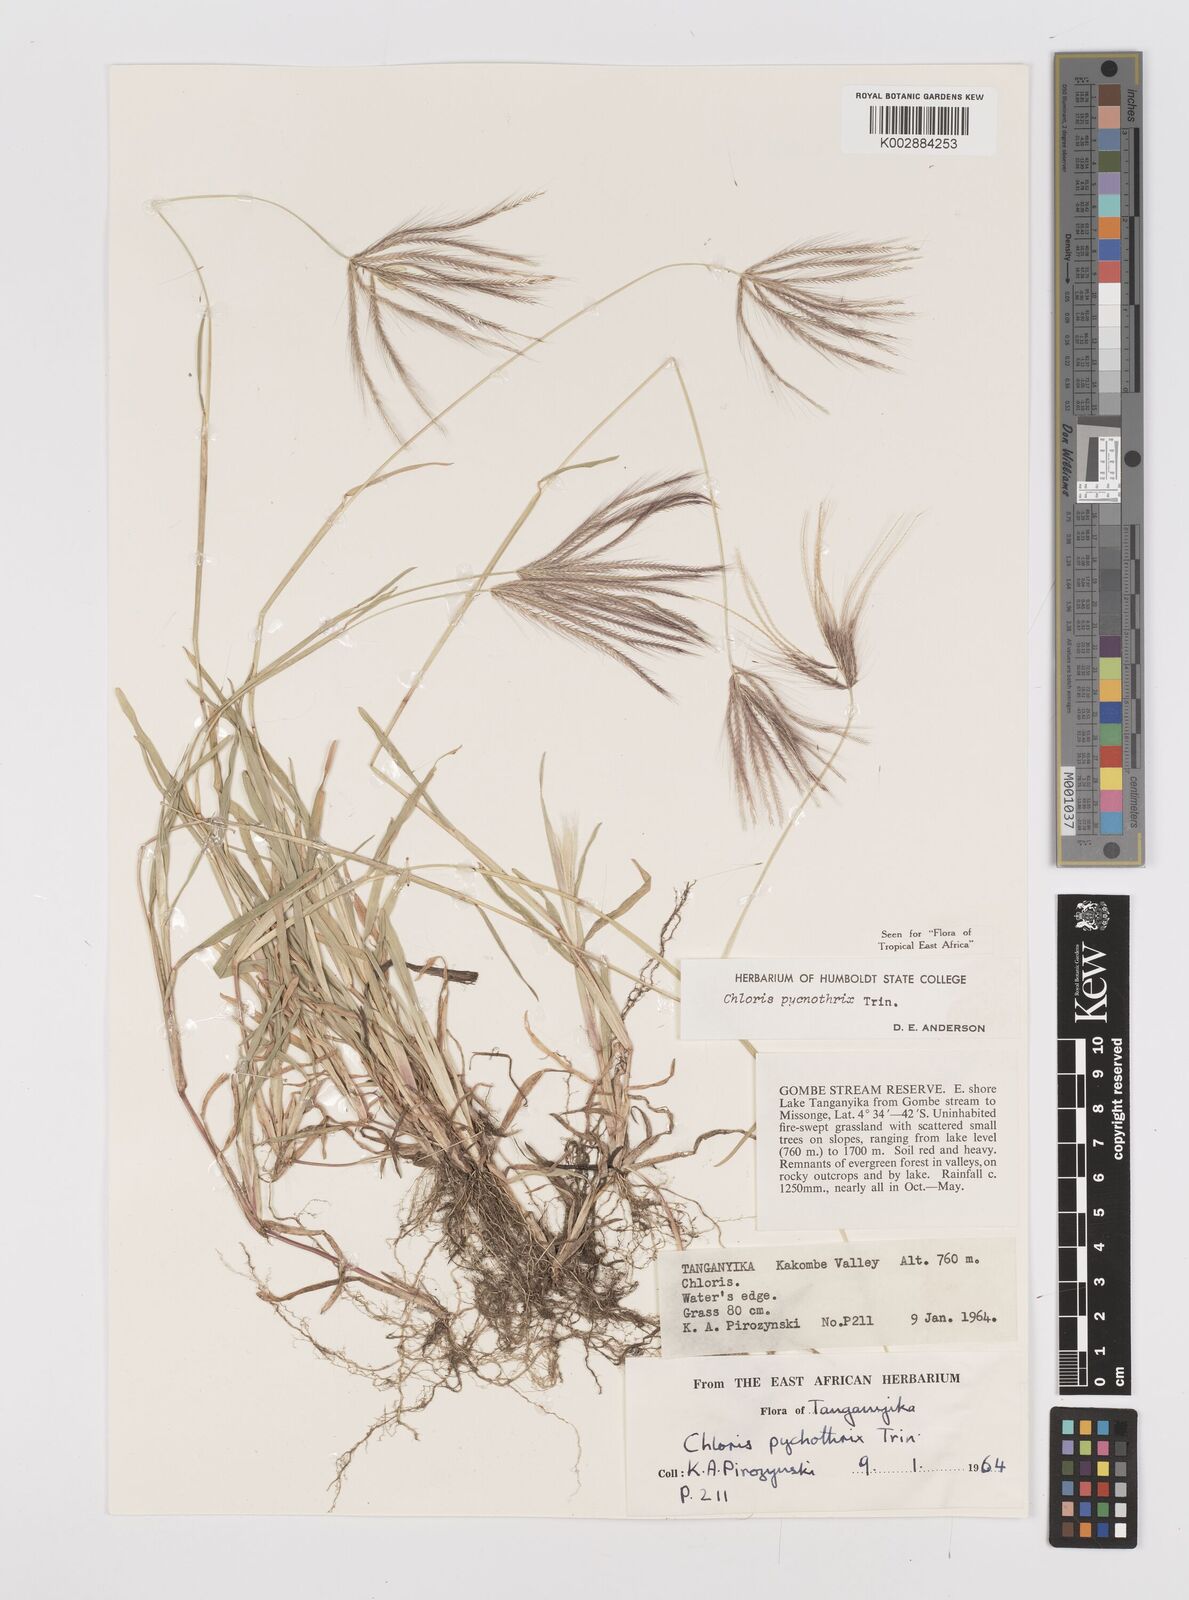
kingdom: Plantae
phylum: Tracheophyta
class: Liliopsida
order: Poales
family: Poaceae
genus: Chloris
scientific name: Chloris pycnothrix
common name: Spiderweb chloris
